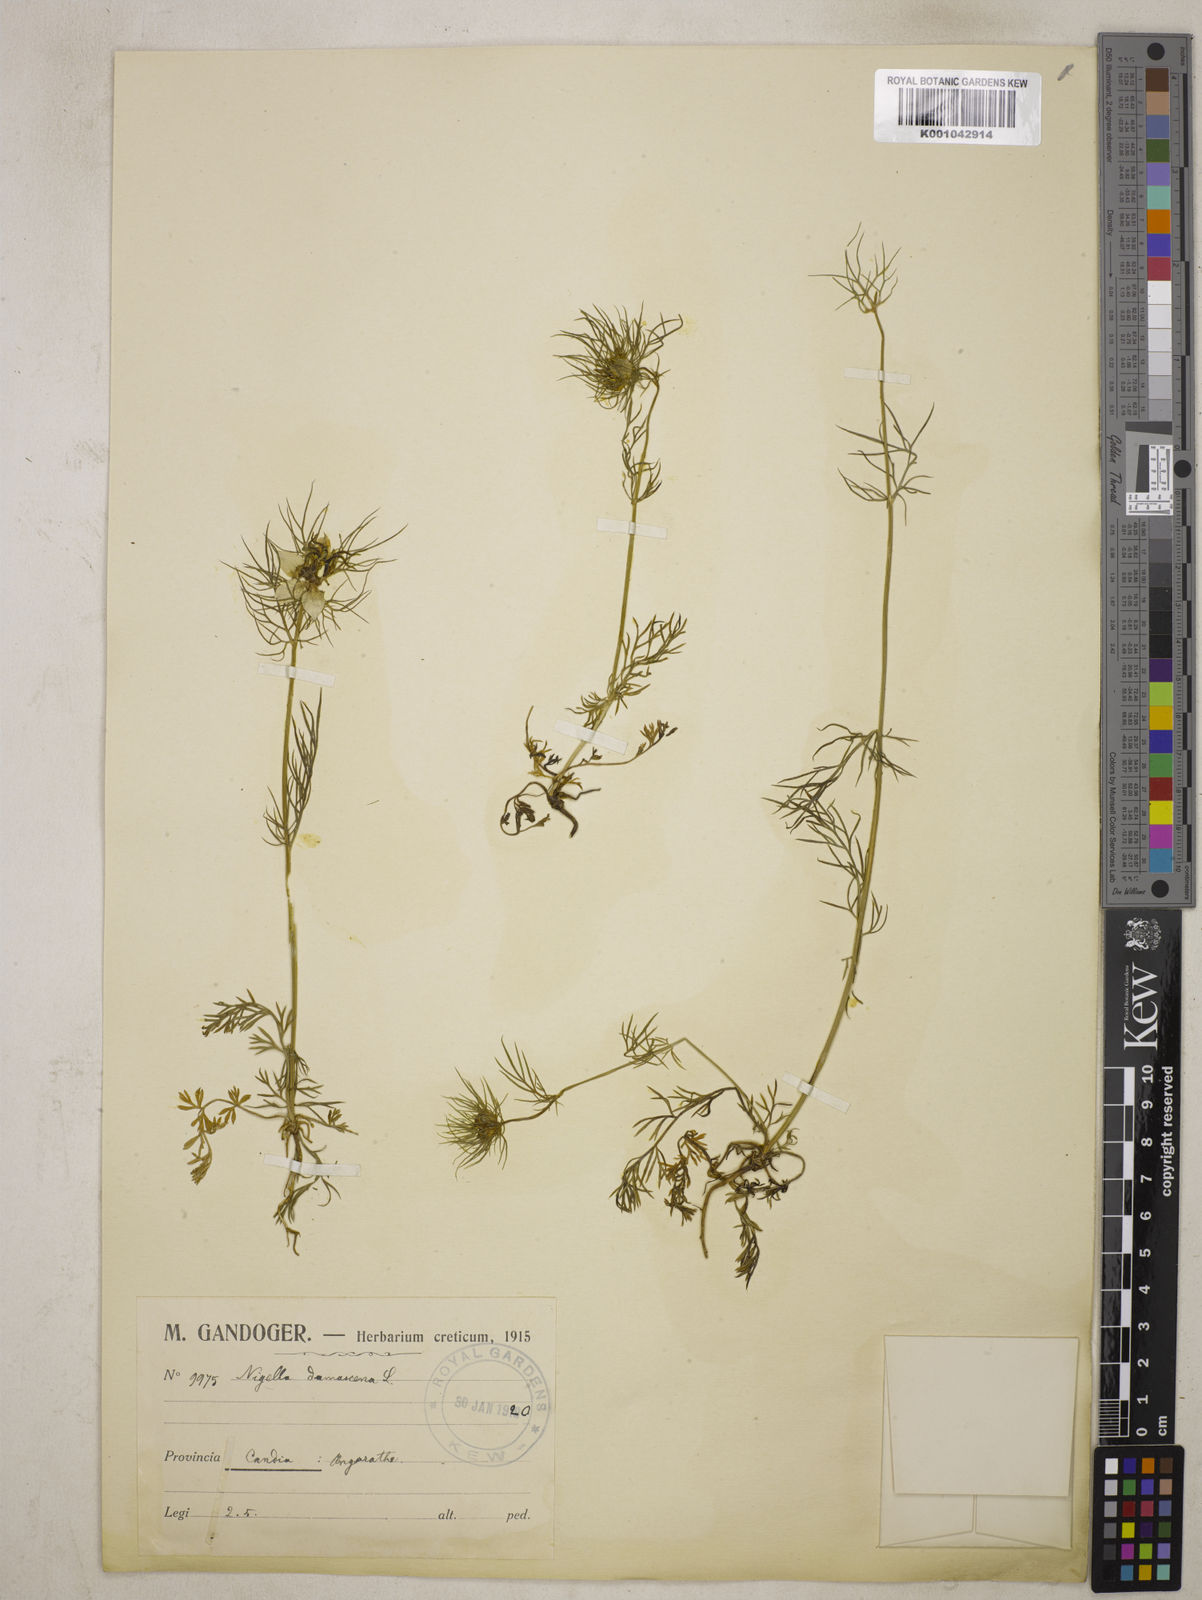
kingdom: Plantae
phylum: Tracheophyta
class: Magnoliopsida
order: Ranunculales
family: Ranunculaceae
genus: Nigella
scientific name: Nigella damascena
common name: Love-in-a-mist
